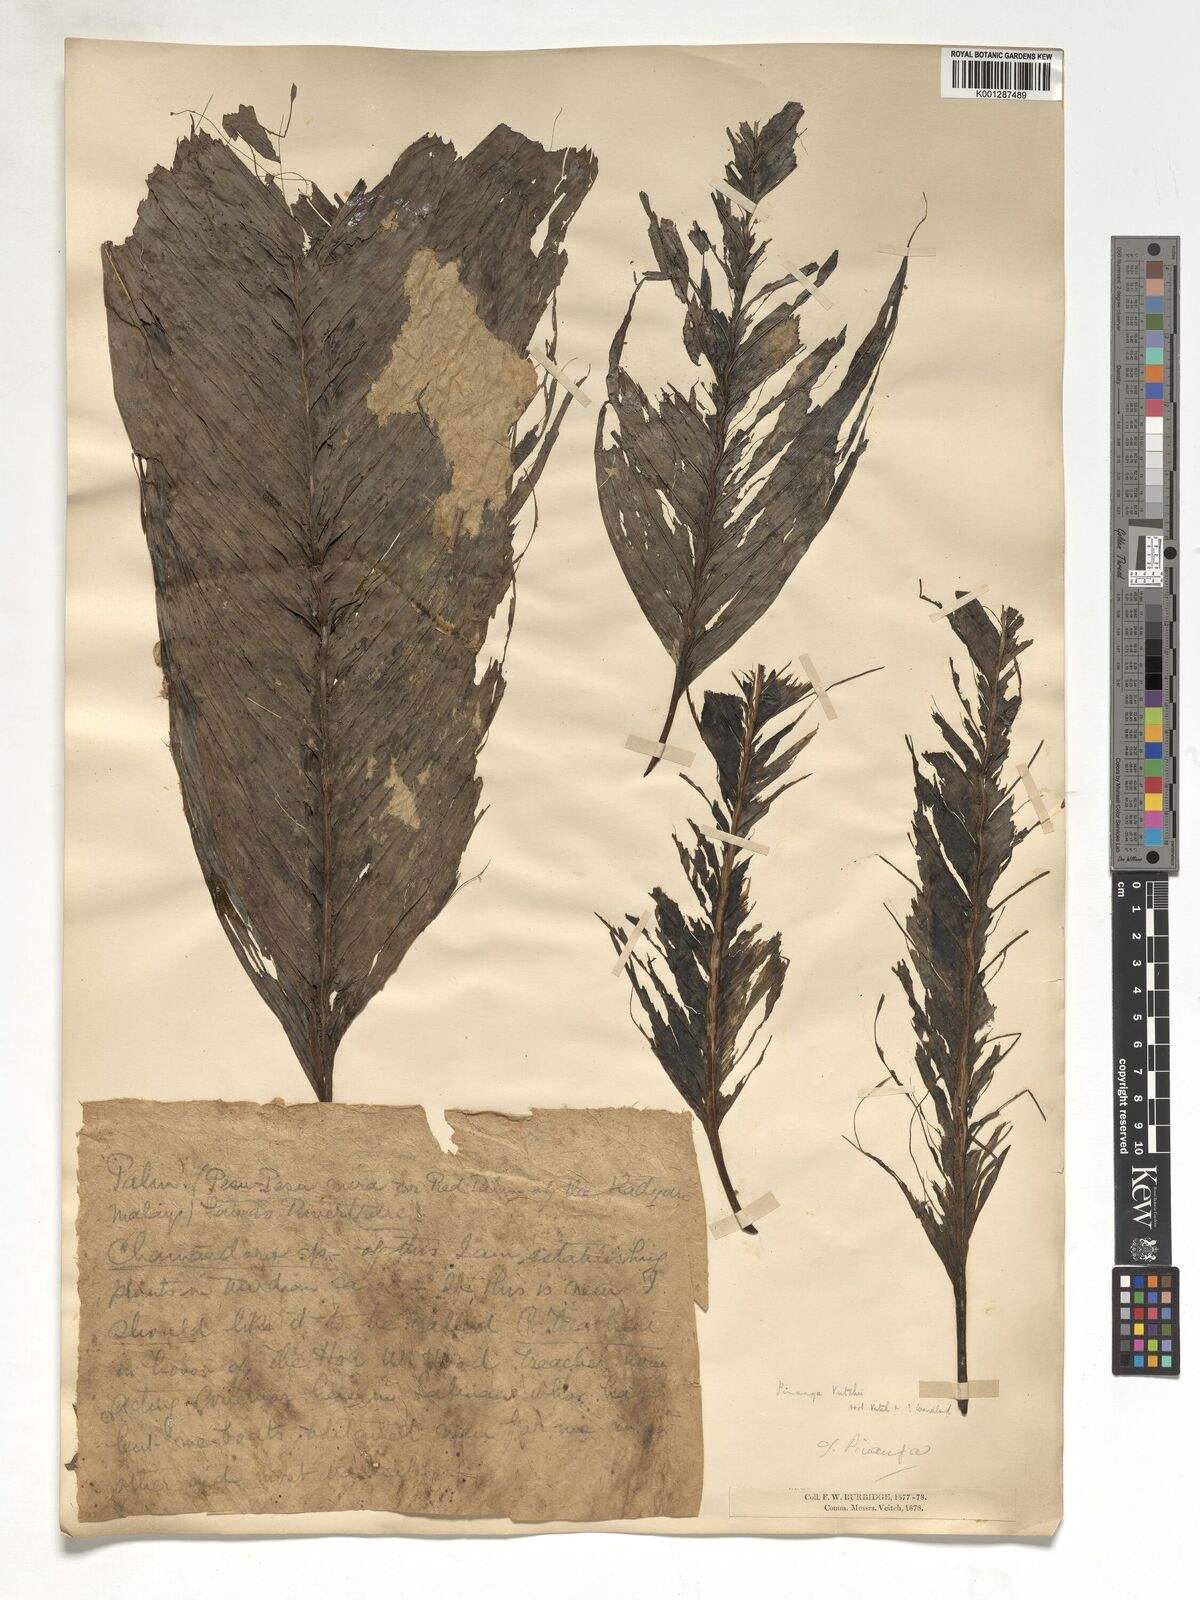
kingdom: Plantae
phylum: Tracheophyta
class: Liliopsida
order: Arecales
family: Arecaceae
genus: Pinanga
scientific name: Pinanga veitchii
